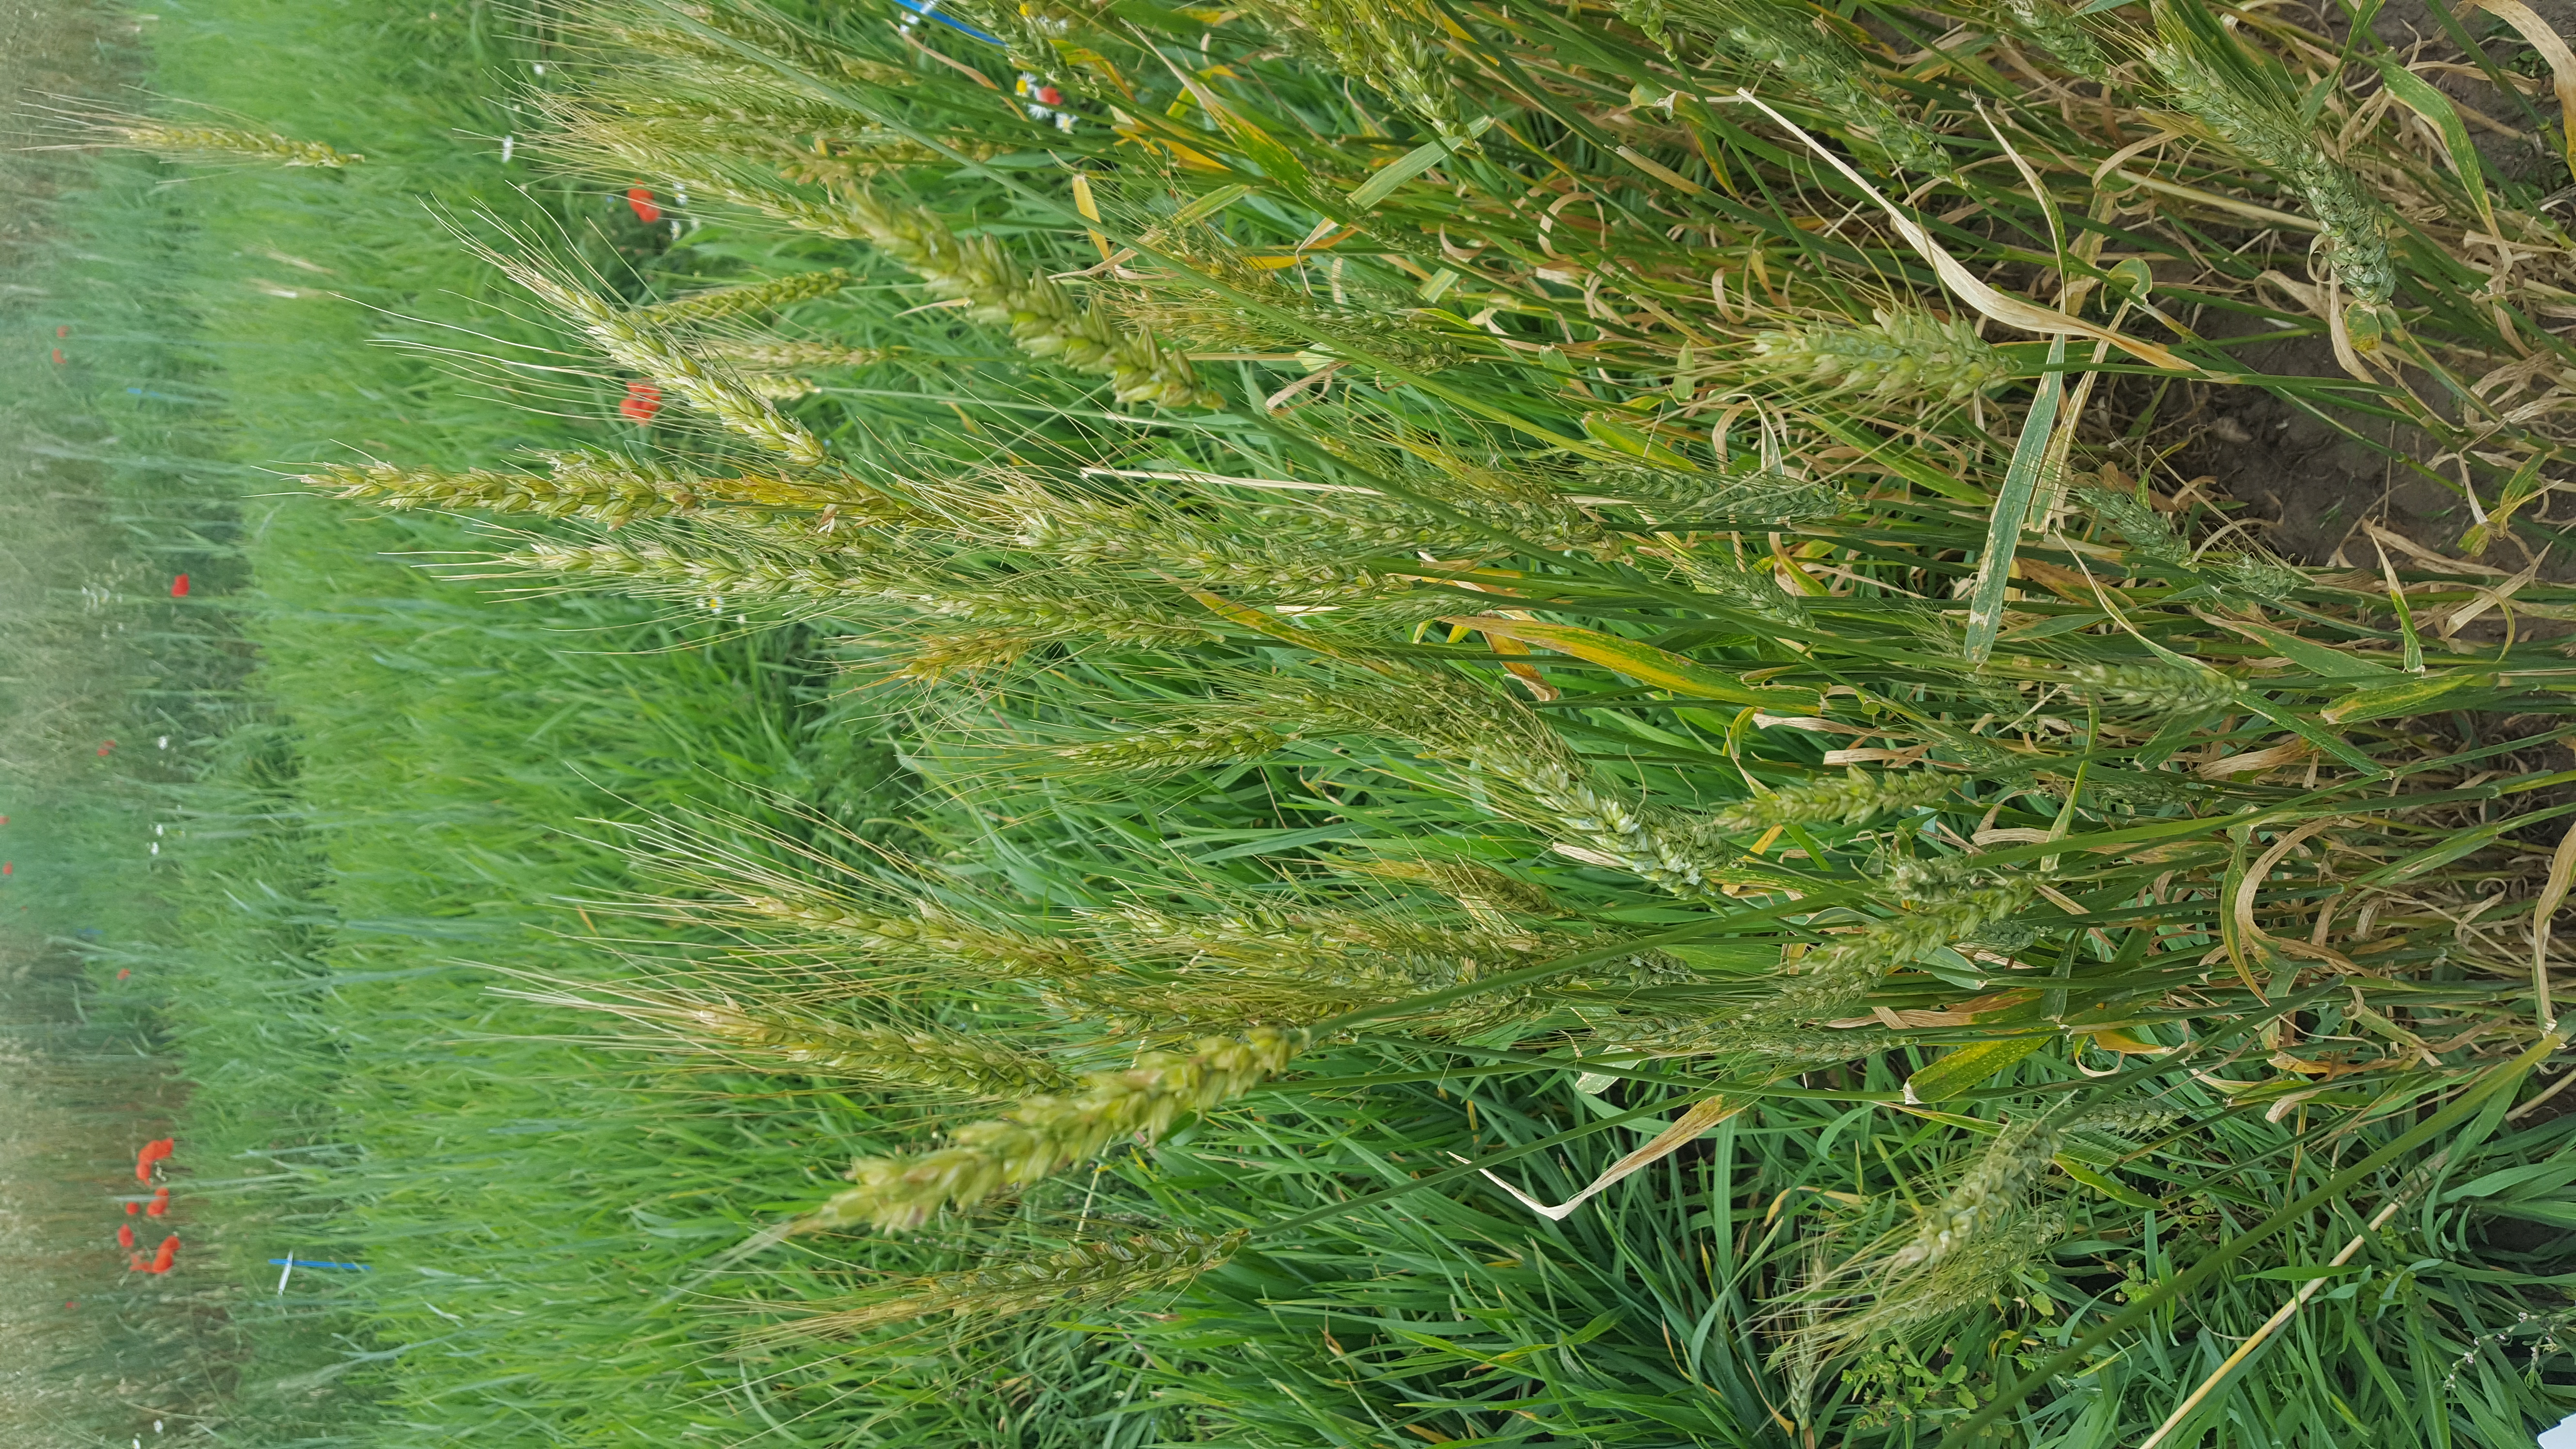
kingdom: Plantae
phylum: Tracheophyta
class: Liliopsida
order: Poales
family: Poaceae
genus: Triticum
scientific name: Triticum aestivum
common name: Common wheat
